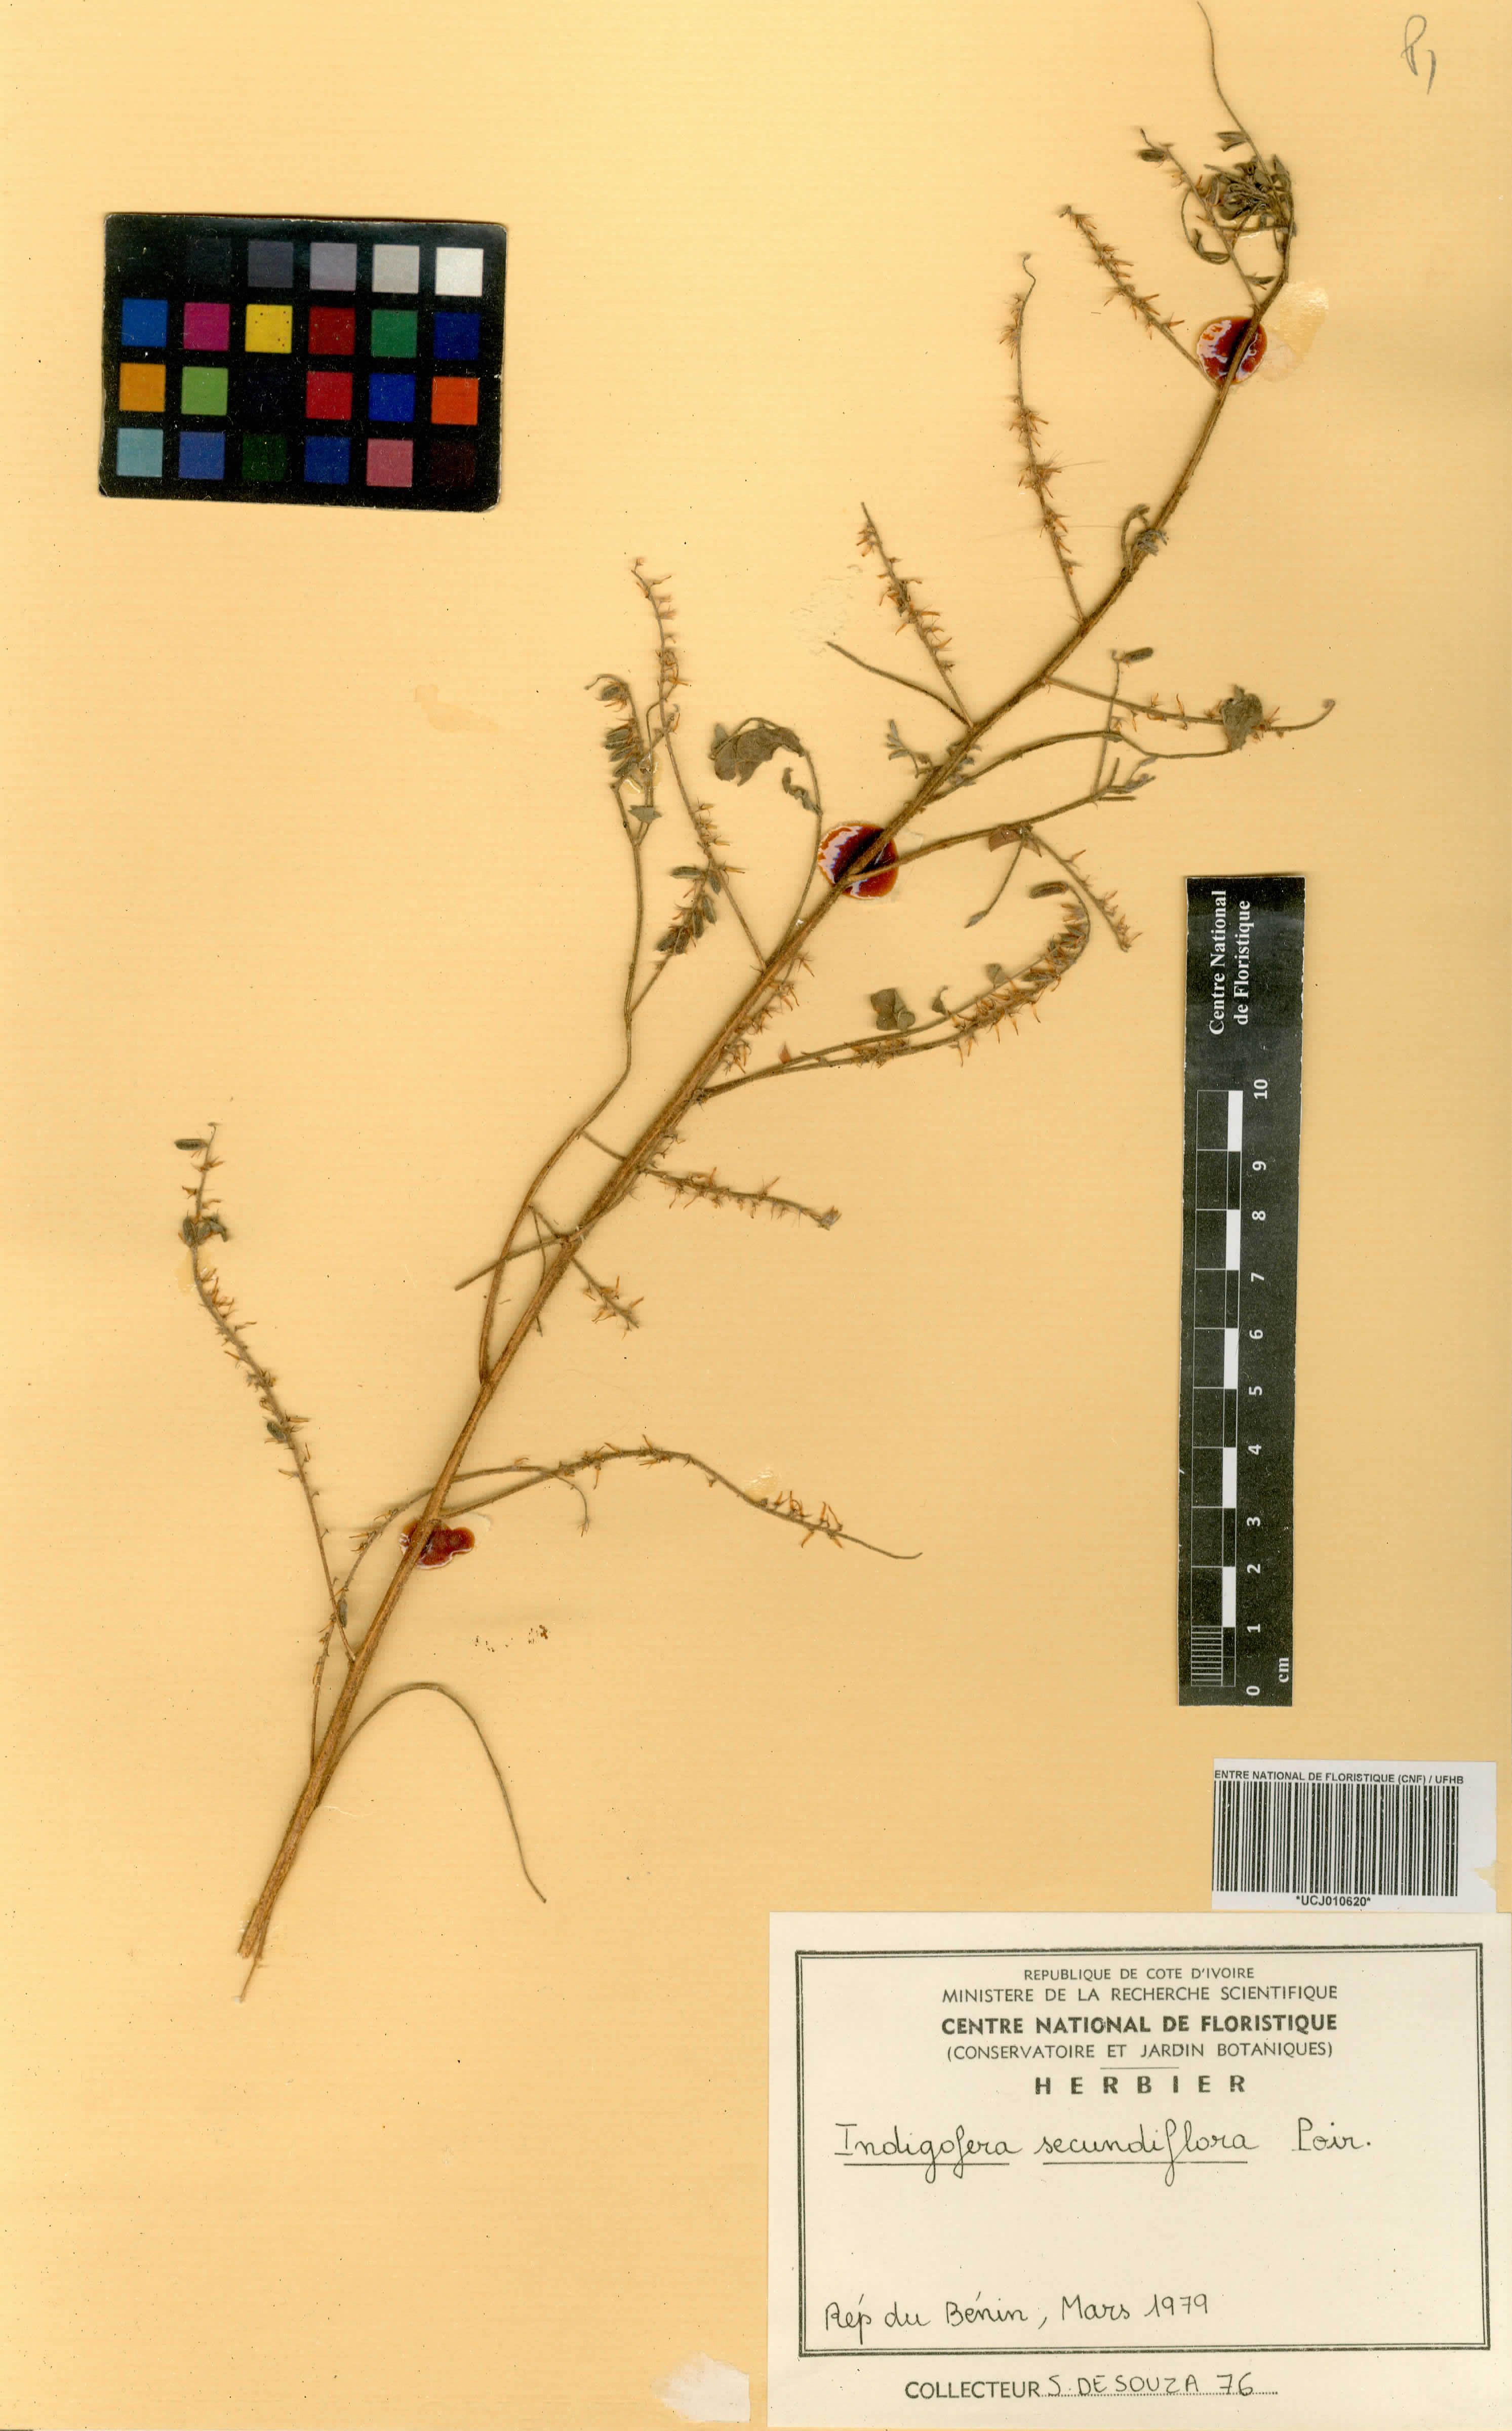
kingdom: Plantae
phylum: Tracheophyta
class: Magnoliopsida
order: Fabales
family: Fabaceae
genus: Indigofera
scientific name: Indigofera suffruticosa
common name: Anil de pasto
